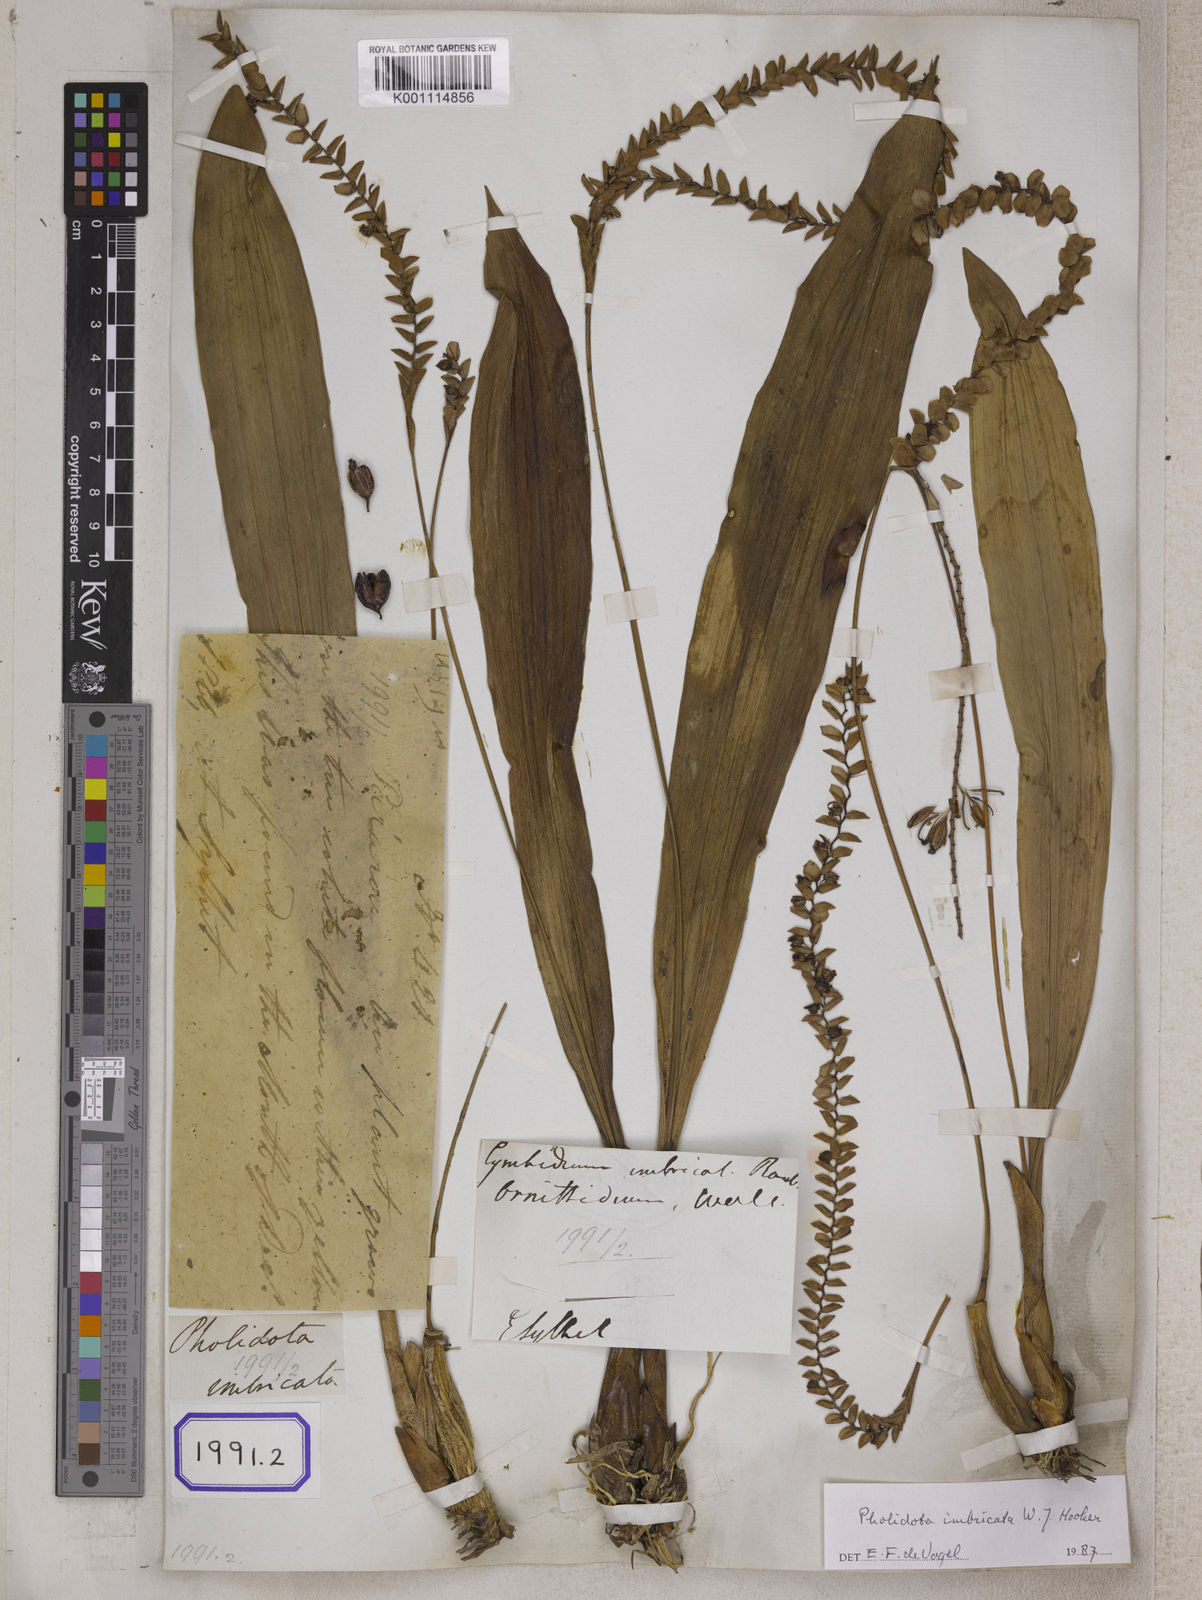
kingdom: Plantae
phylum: Tracheophyta
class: Liliopsida
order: Asparagales
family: Orchidaceae
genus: Pholidota
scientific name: Pholidota
